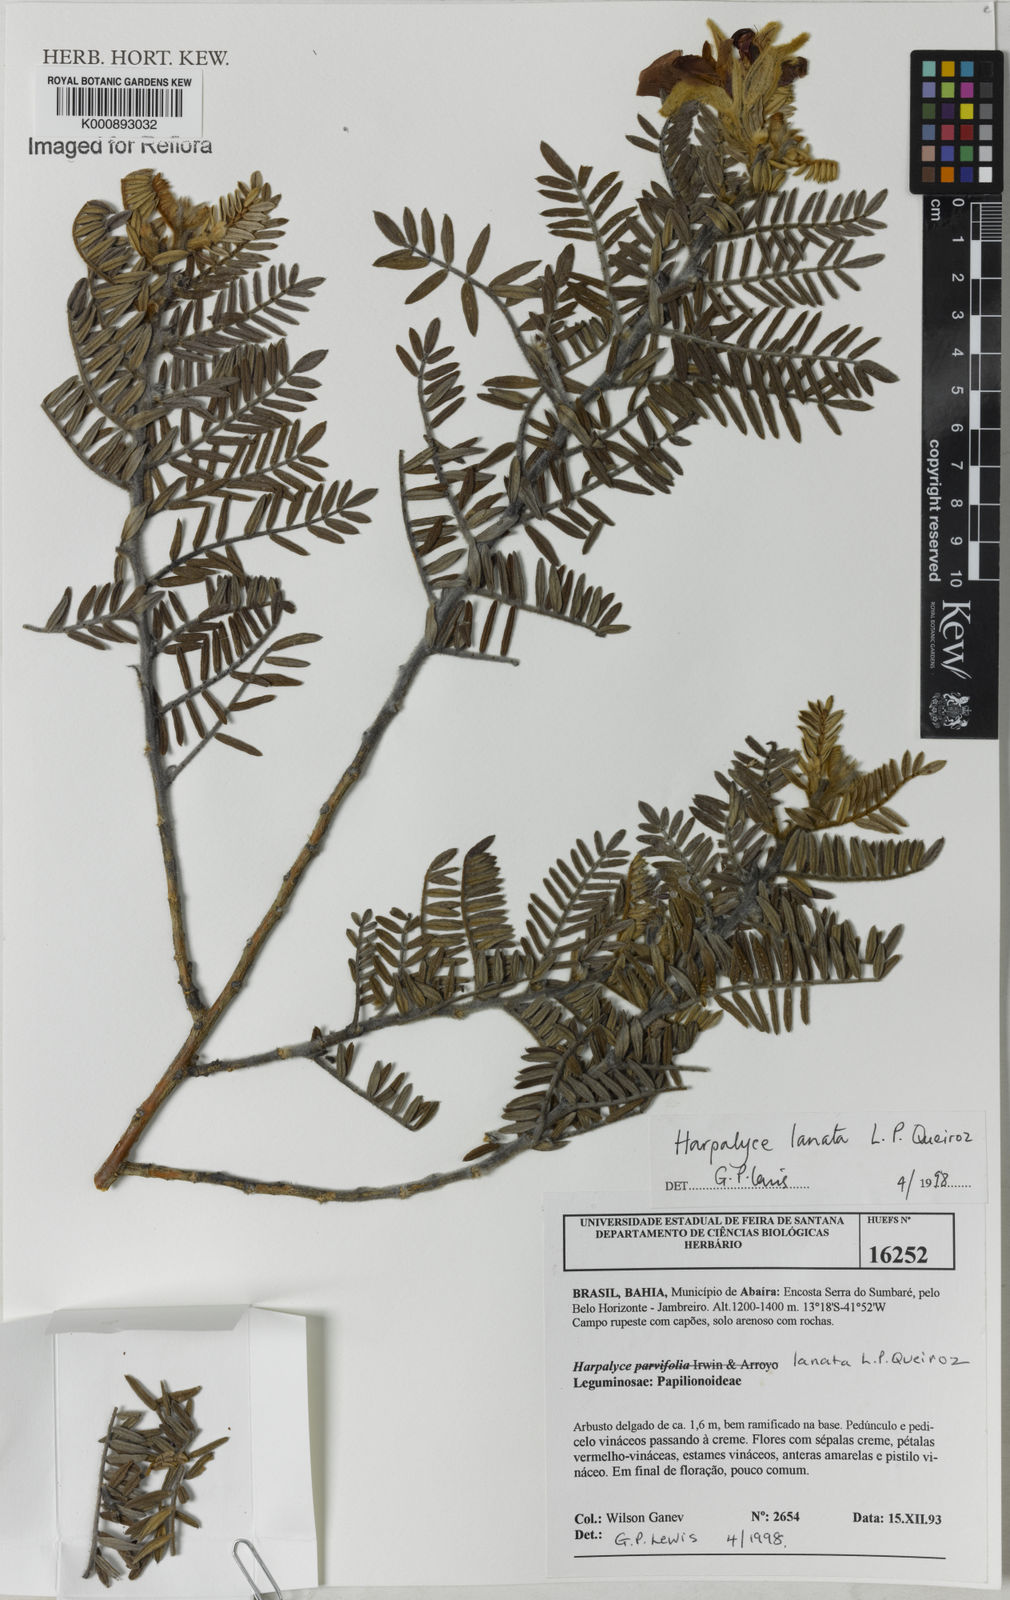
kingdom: Plantae
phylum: Tracheophyta
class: Magnoliopsida
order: Fabales
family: Fabaceae
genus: Harpalyce
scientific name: Harpalyce lanata
